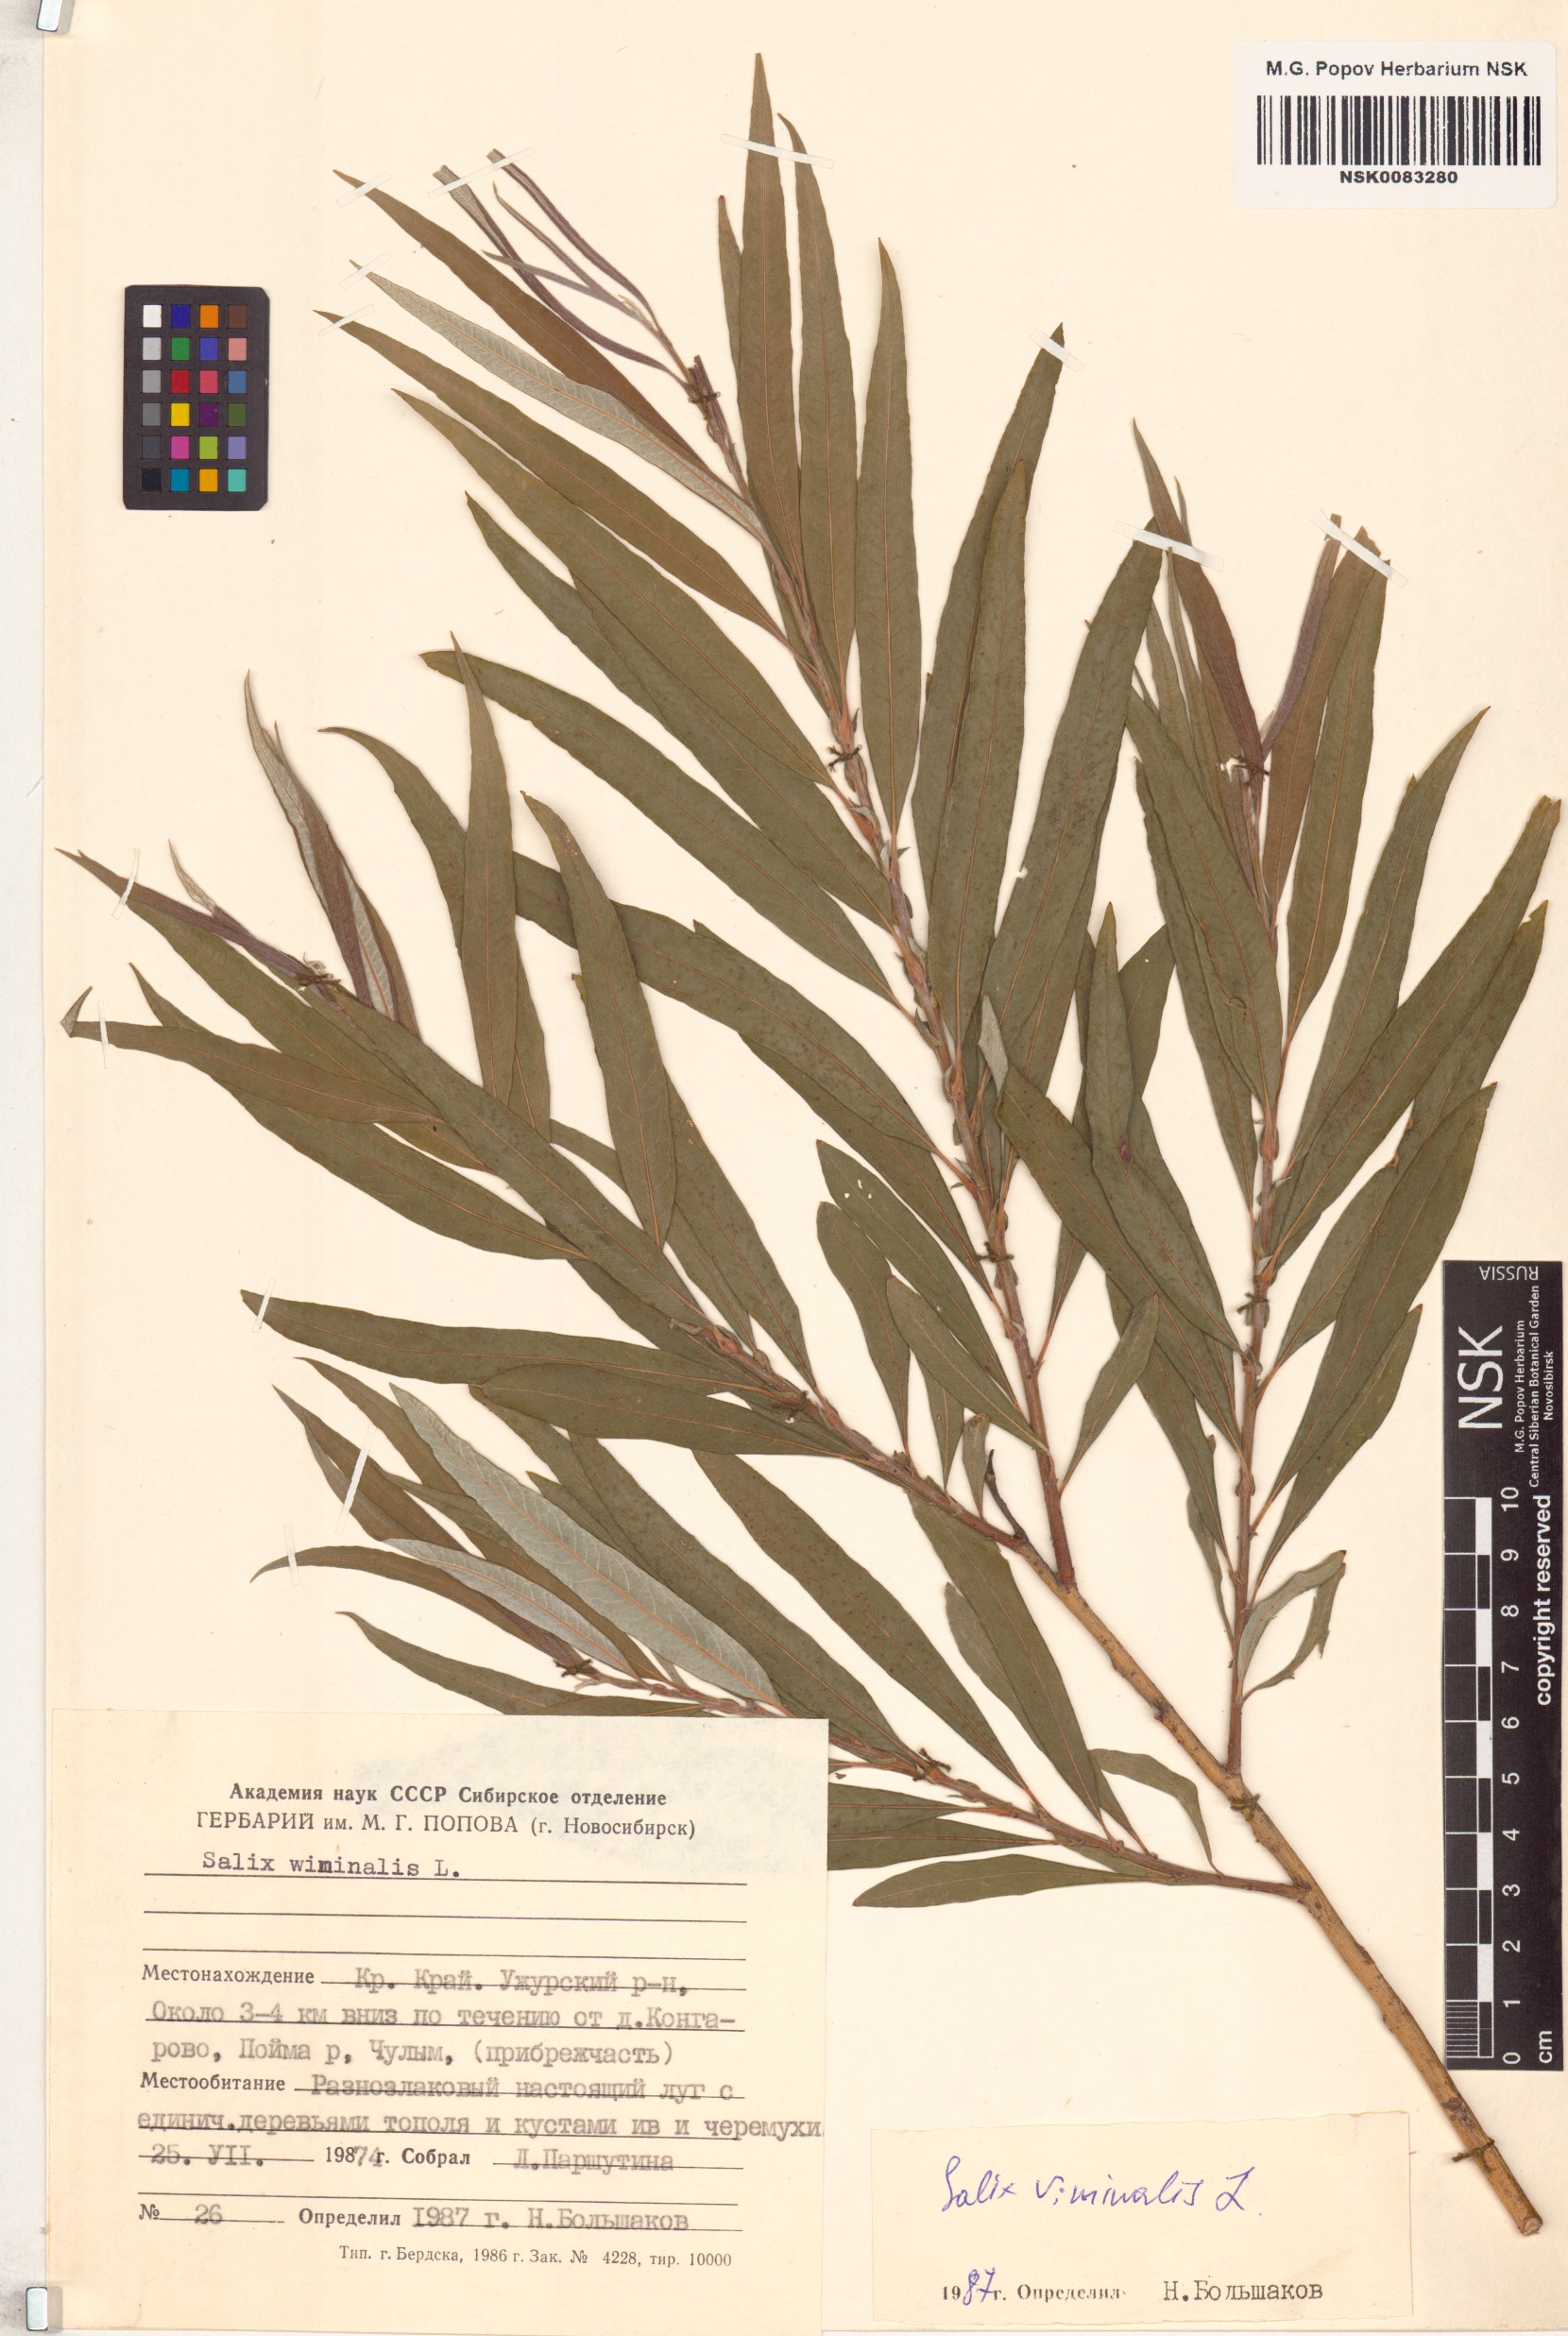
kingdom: Plantae
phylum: Tracheophyta
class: Magnoliopsida
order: Malpighiales
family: Salicaceae
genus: Salix
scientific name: Salix viminalis
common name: Osier
